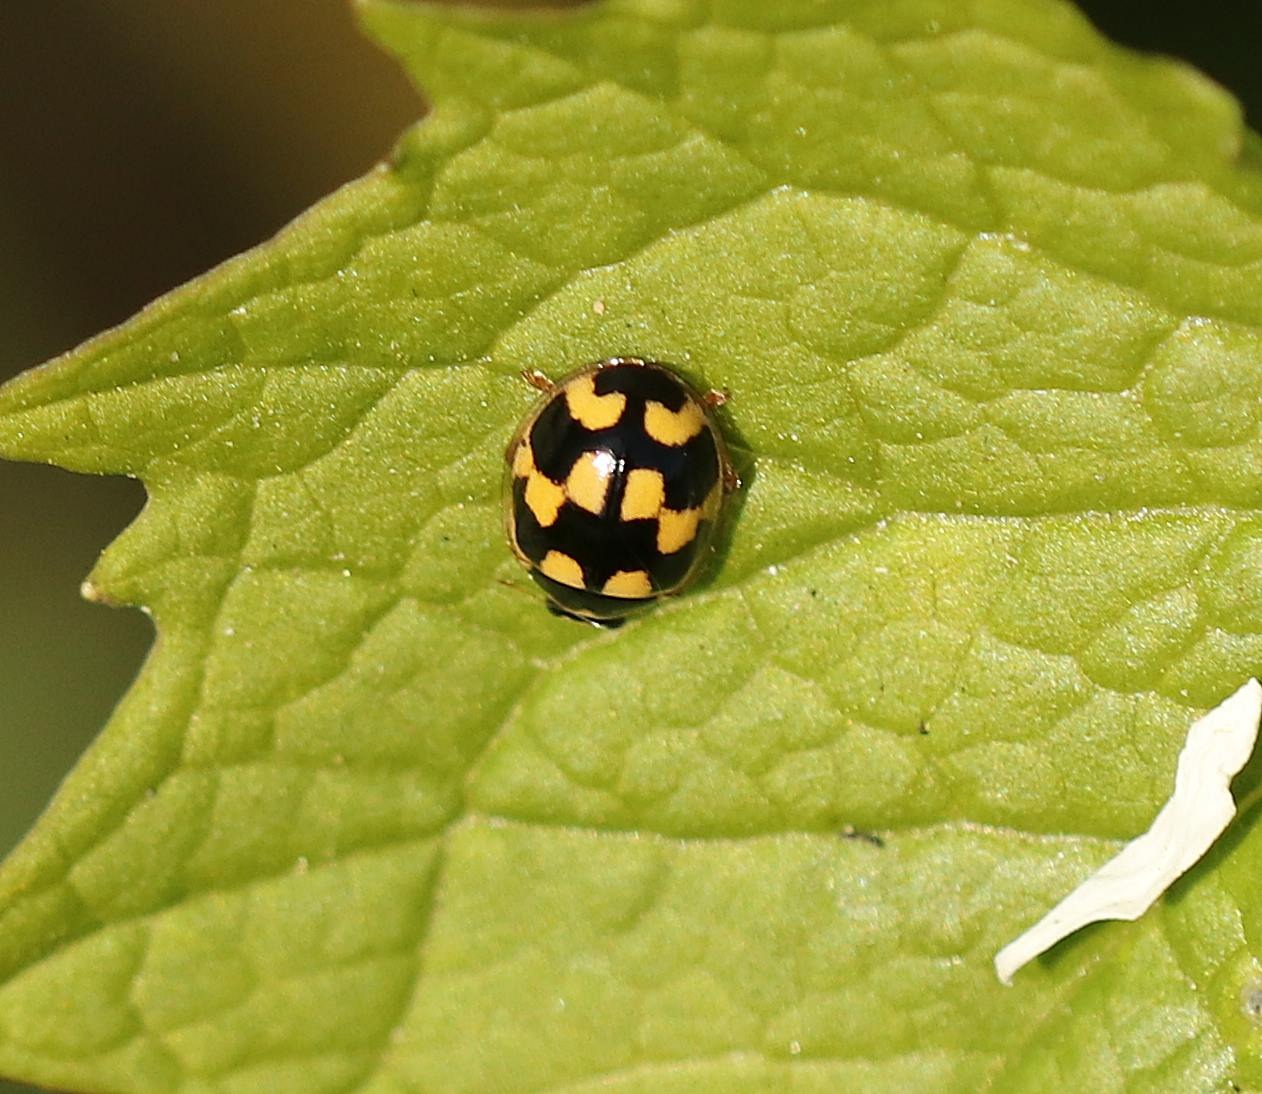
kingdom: Animalia
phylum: Arthropoda
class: Insecta
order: Coleoptera
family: Coccinellidae
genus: Propylaea
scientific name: Propylaea quatuordecimpunctata
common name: Skakbræt
